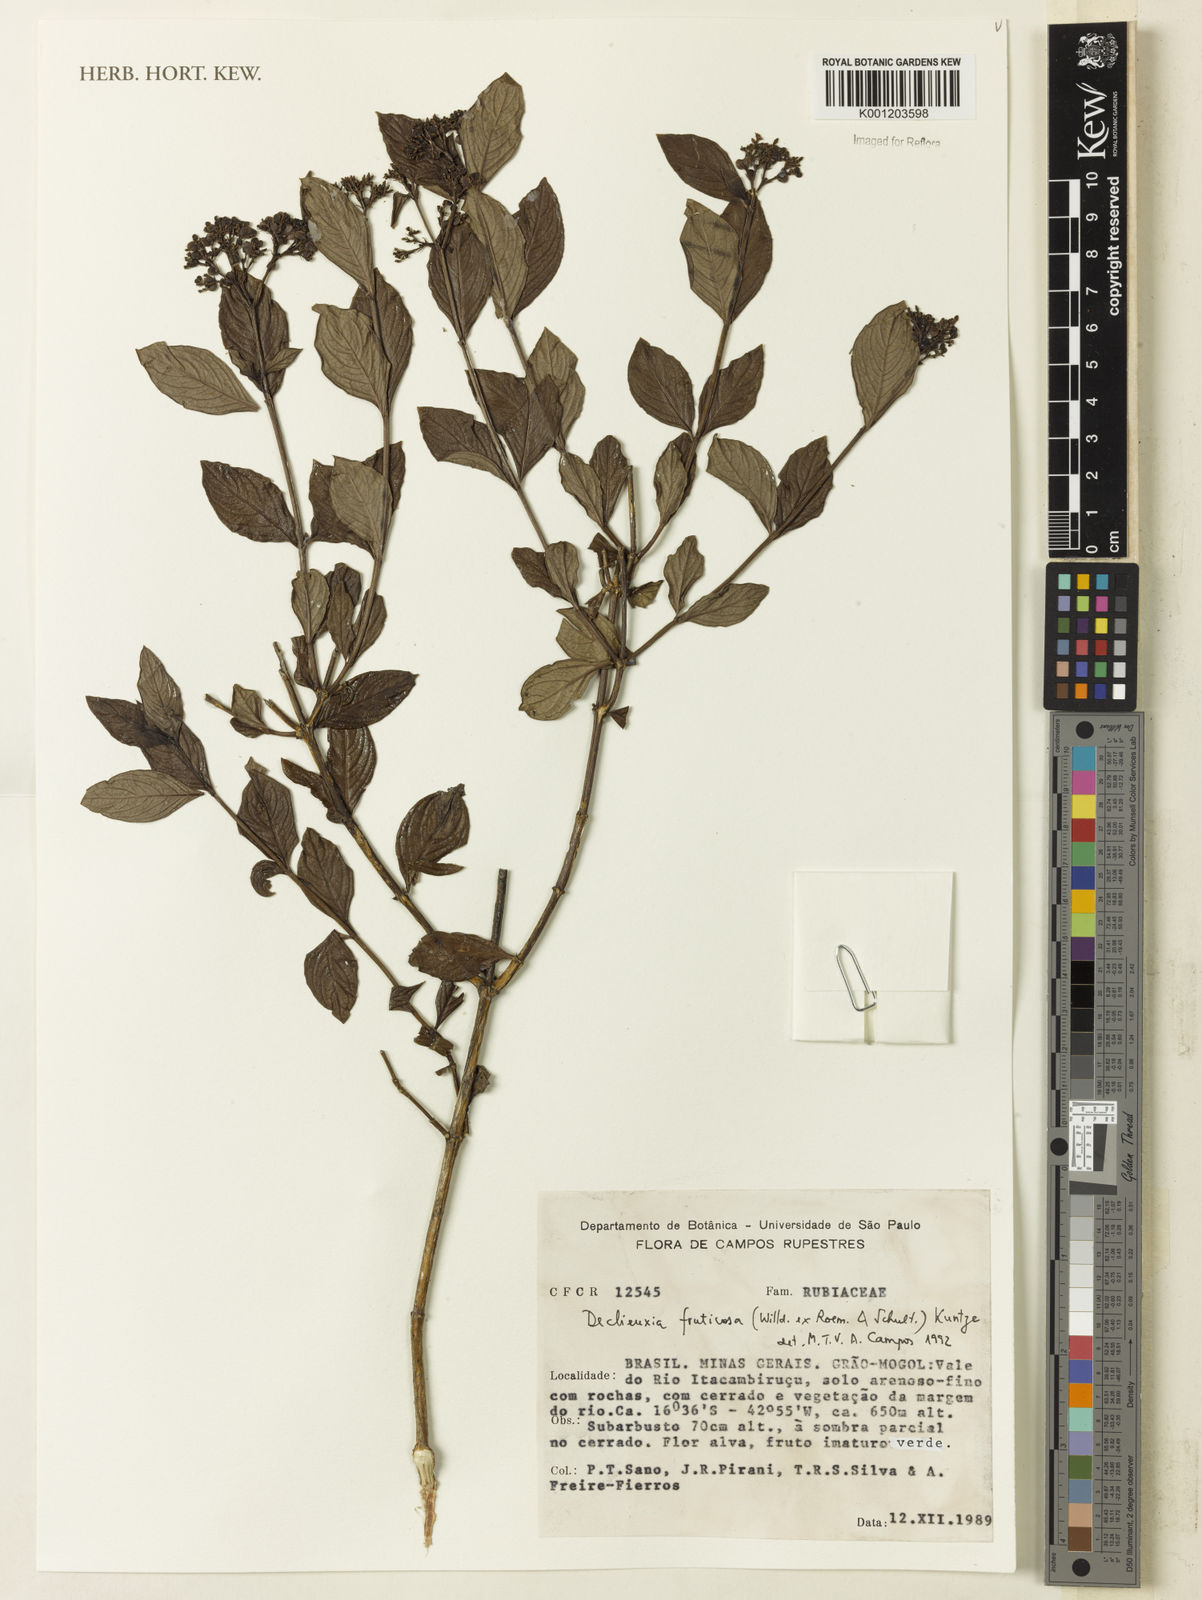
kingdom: Plantae
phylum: Tracheophyta
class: Magnoliopsida
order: Gentianales
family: Rubiaceae
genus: Declieuxia
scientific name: Declieuxia fruticosa
